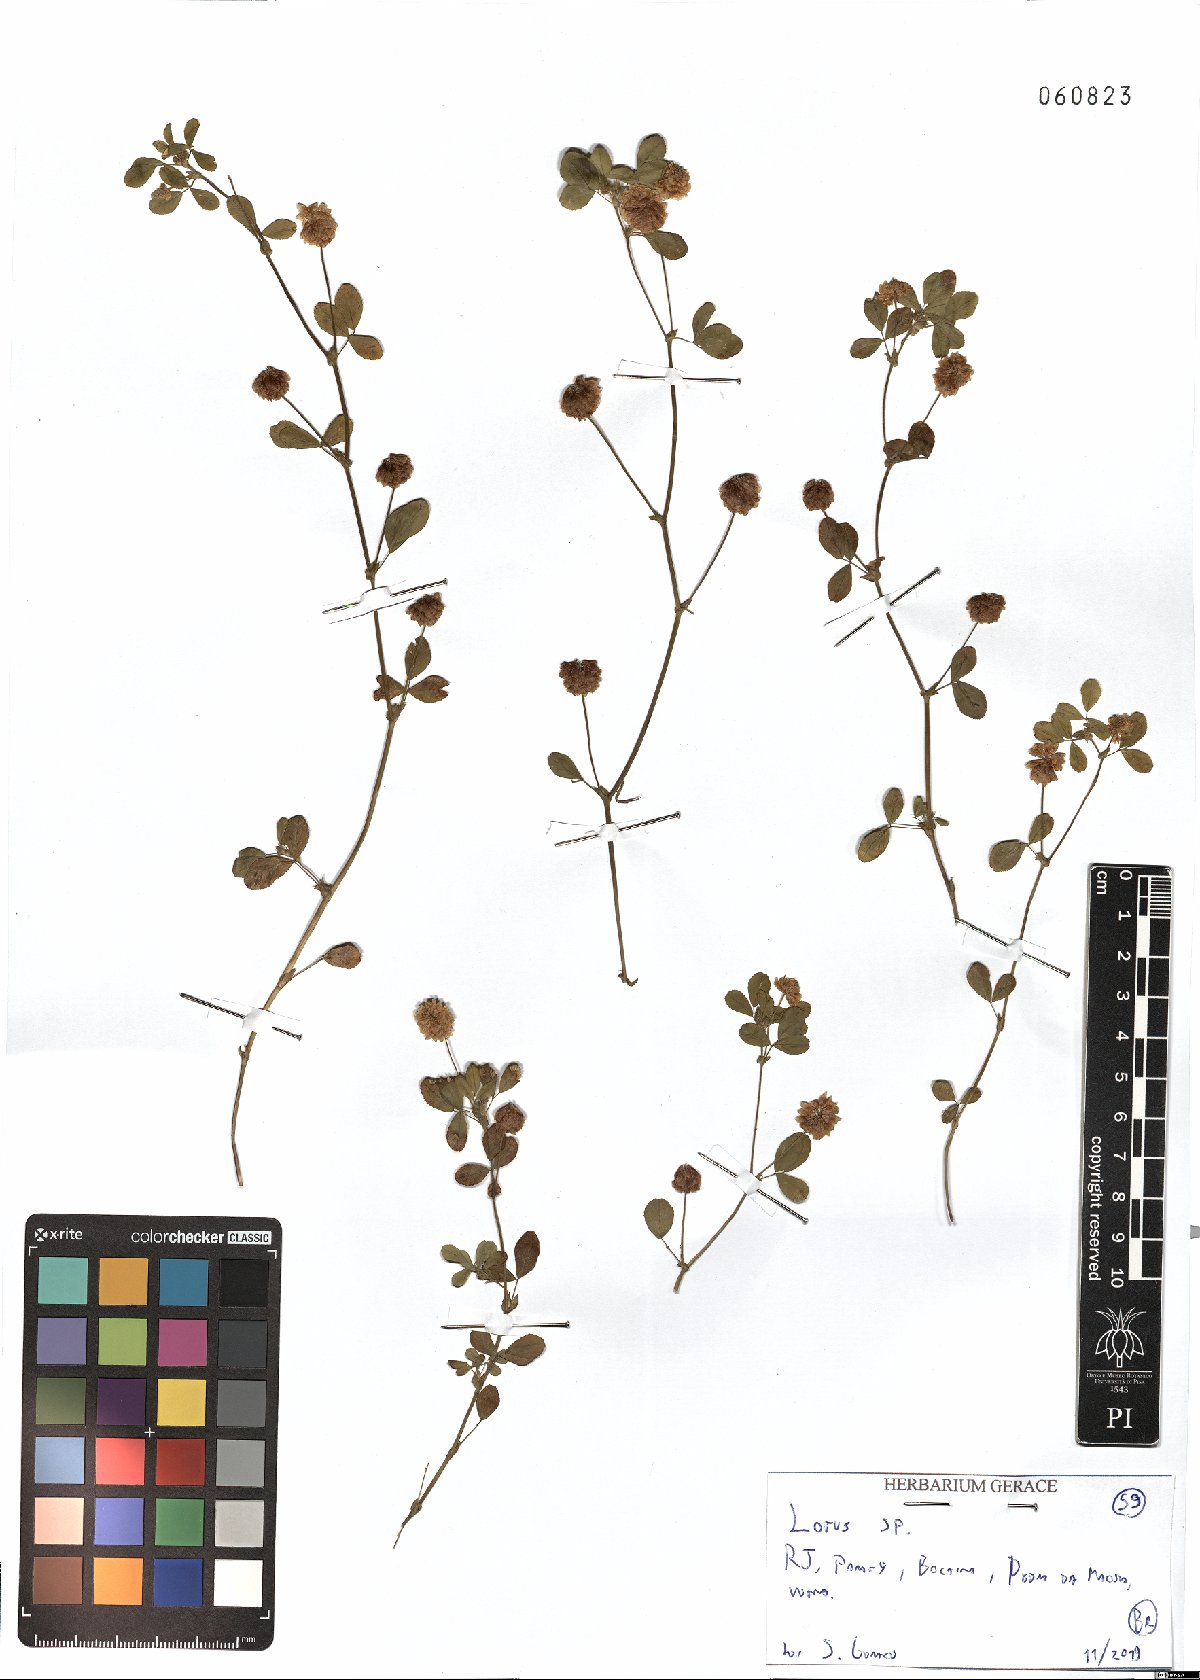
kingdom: Plantae
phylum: Tracheophyta
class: Magnoliopsida
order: Fabales
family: Fabaceae
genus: Lotus
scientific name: Lotus
